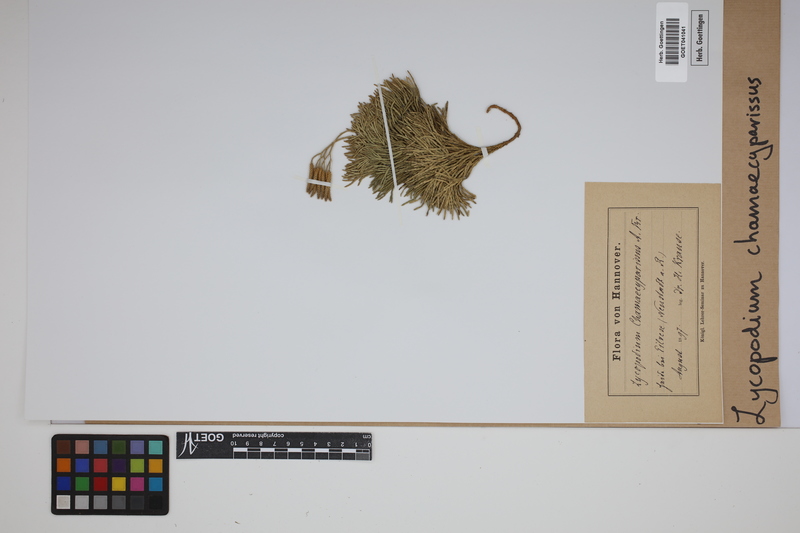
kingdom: Plantae
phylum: Tracheophyta
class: Lycopodiopsida
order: Lycopodiales
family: Lycopodiaceae
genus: Diphasiastrum
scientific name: Diphasiastrum tristachyum
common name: Blue ground-cedar
